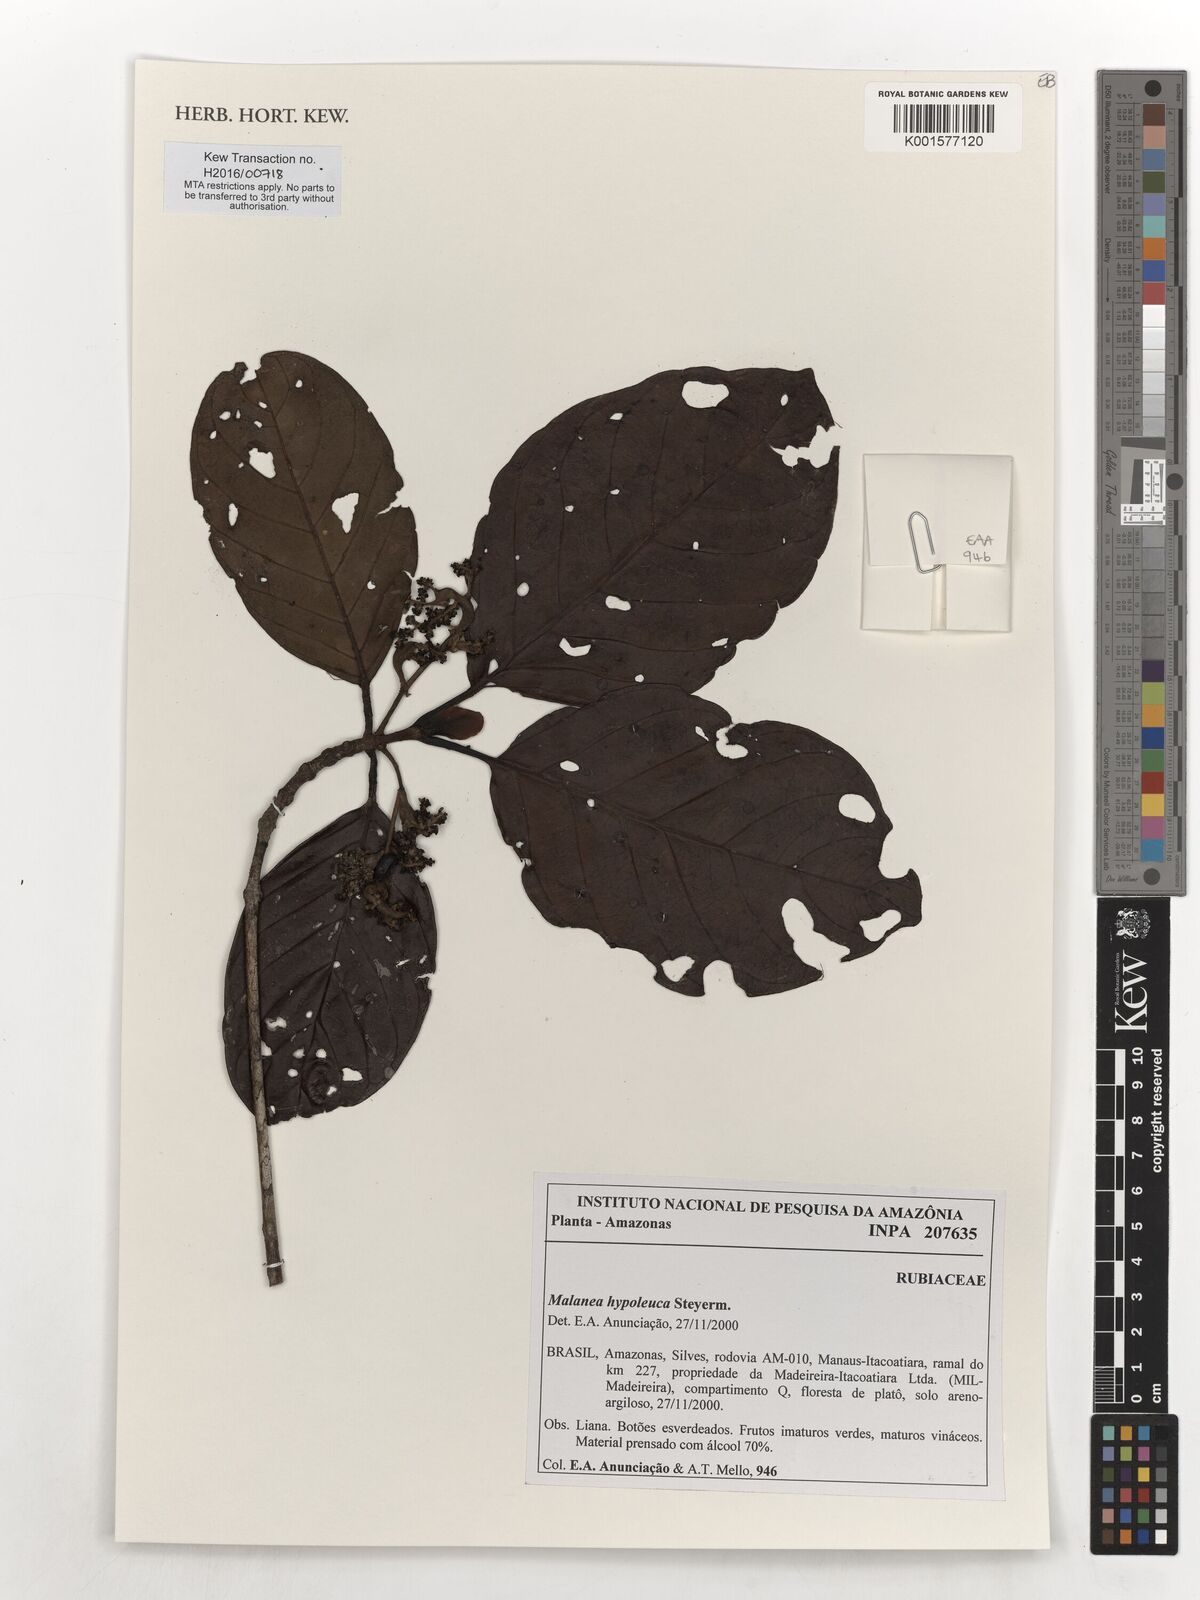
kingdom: Plantae
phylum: Tracheophyta
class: Magnoliopsida
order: Gentianales
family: Rubiaceae
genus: Malanea
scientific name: Malanea hypoleuca
